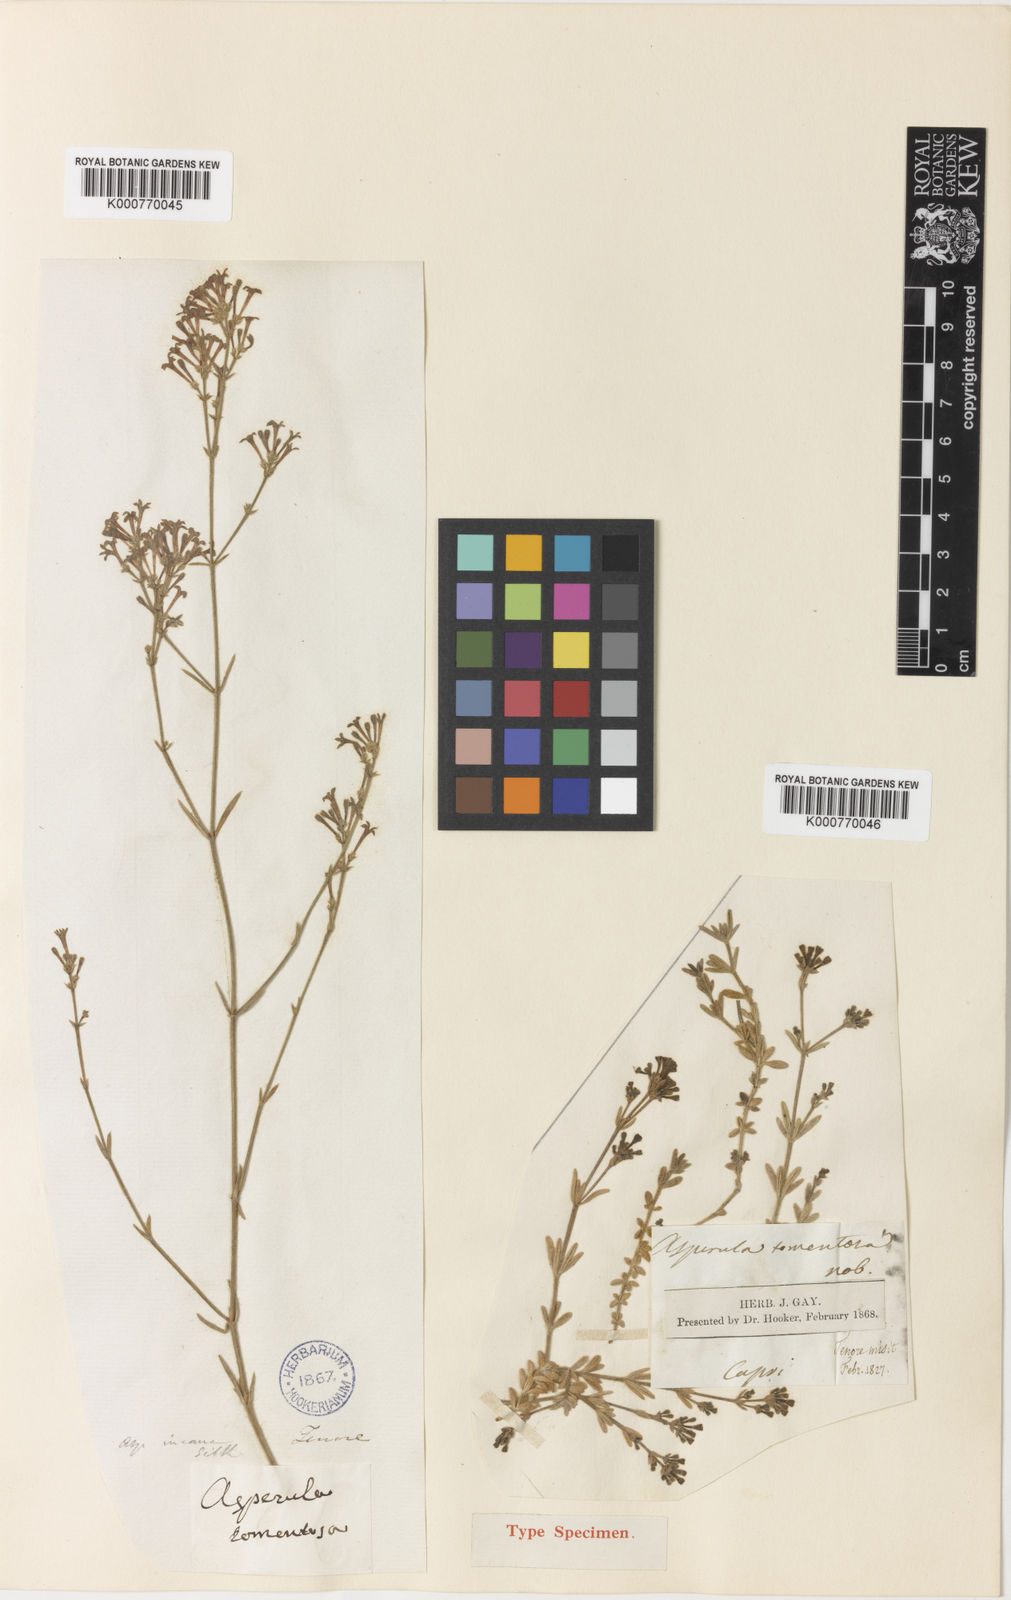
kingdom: Plantae
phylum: Tracheophyta
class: Magnoliopsida
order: Gentianales
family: Rubiaceae
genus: Hexaphylla
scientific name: Hexaphylla pubescens
